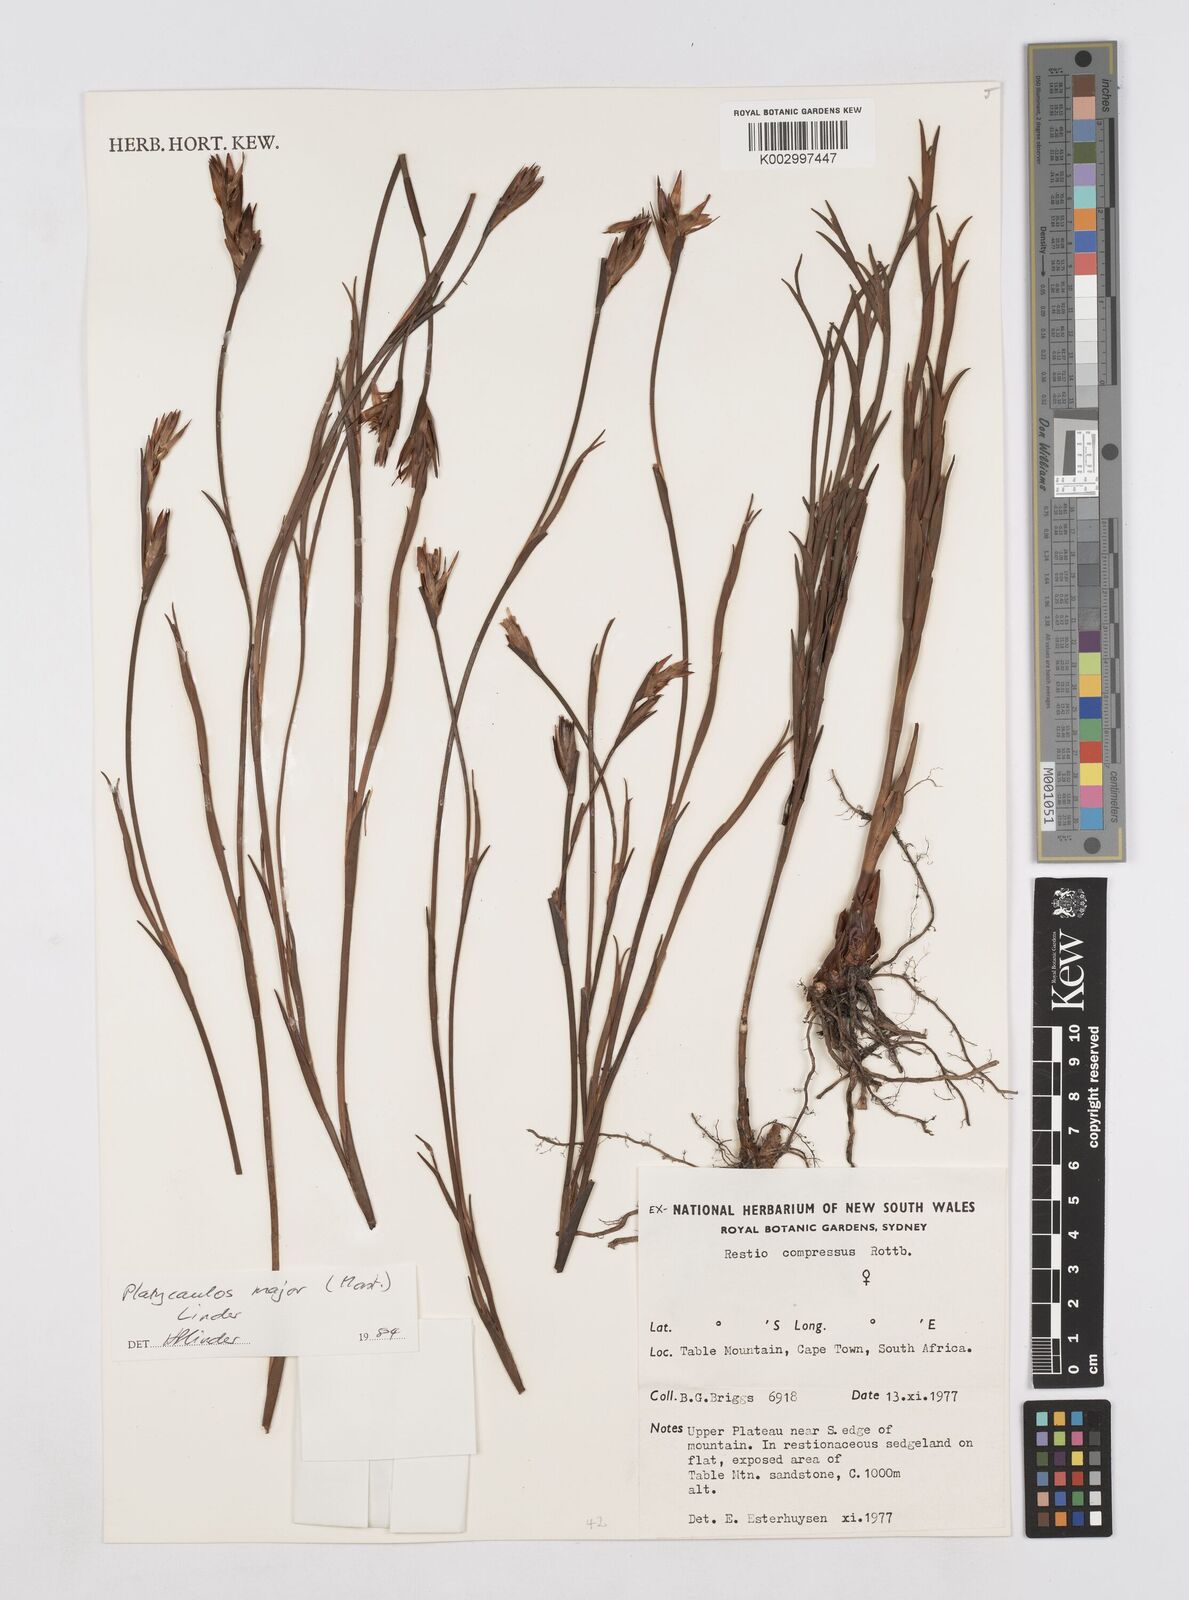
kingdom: Plantae
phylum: Tracheophyta
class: Liliopsida
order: Poales
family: Restionaceae
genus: Platycaulos
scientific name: Platycaulos major
